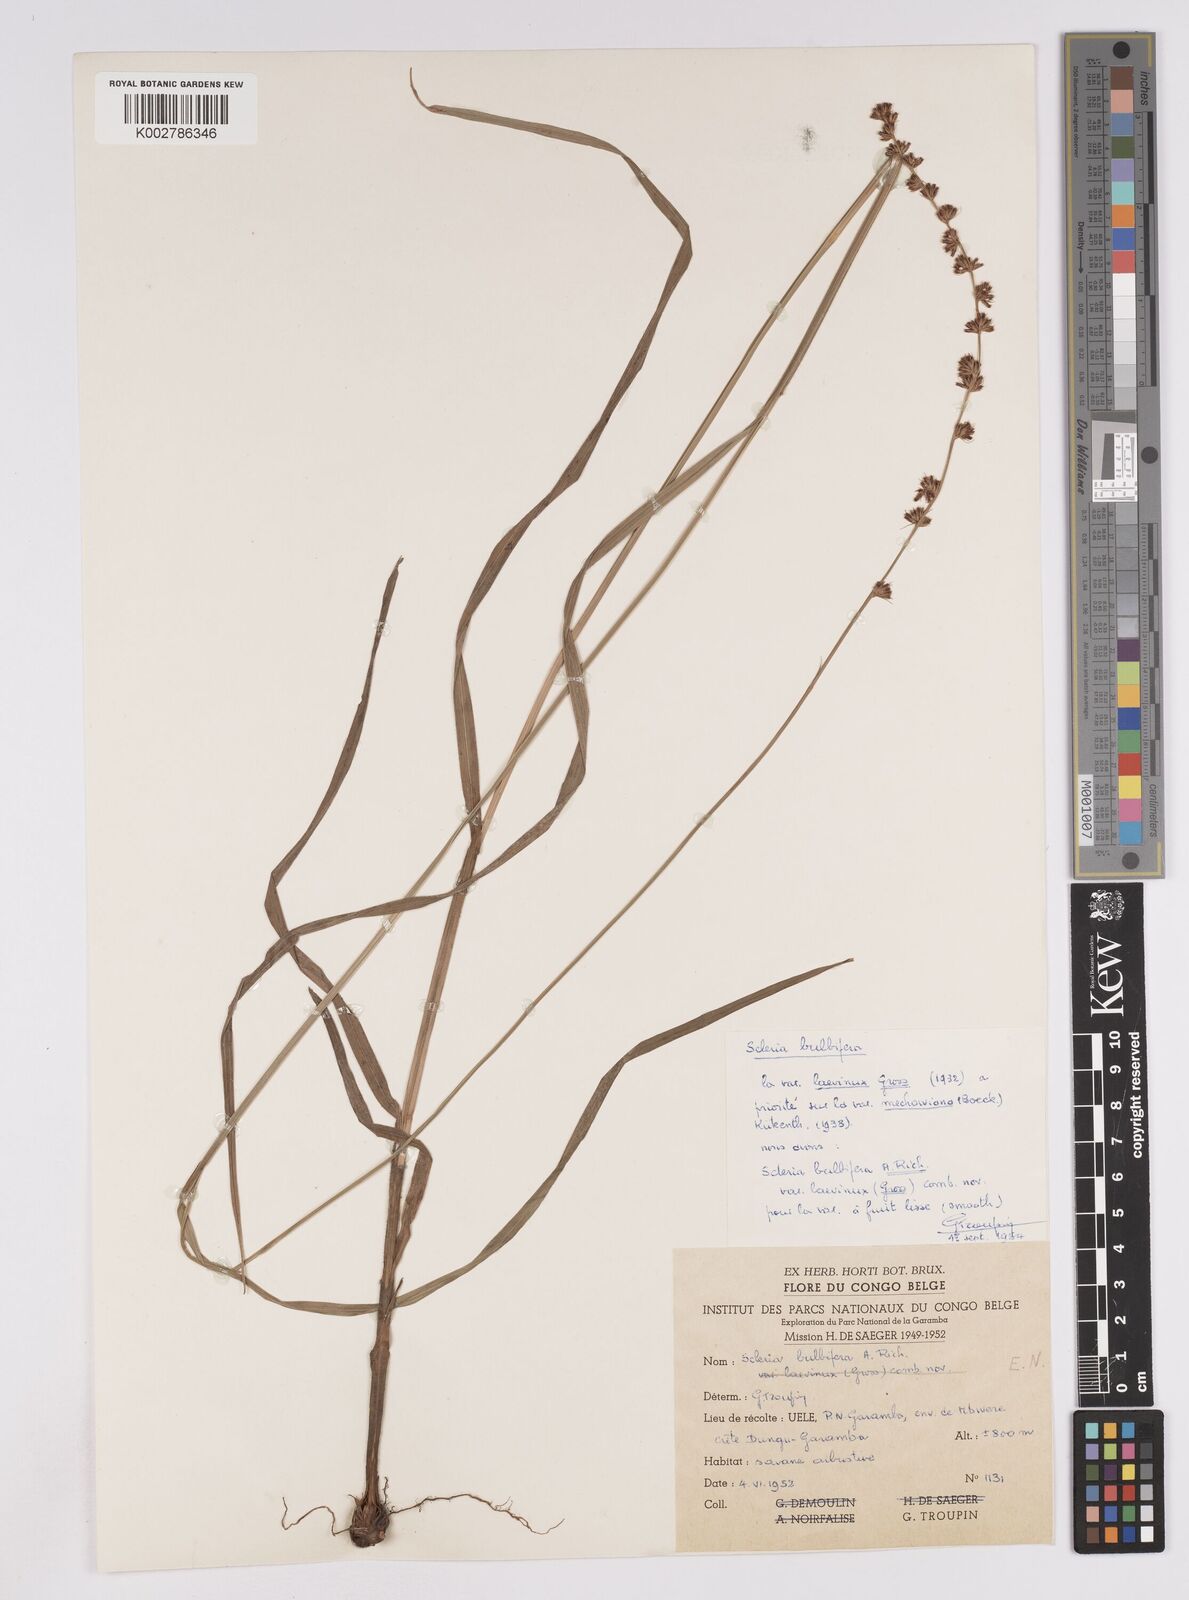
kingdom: Plantae
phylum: Tracheophyta
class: Liliopsida
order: Poales
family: Cyperaceae
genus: Scleria
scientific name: Scleria bulbifera
